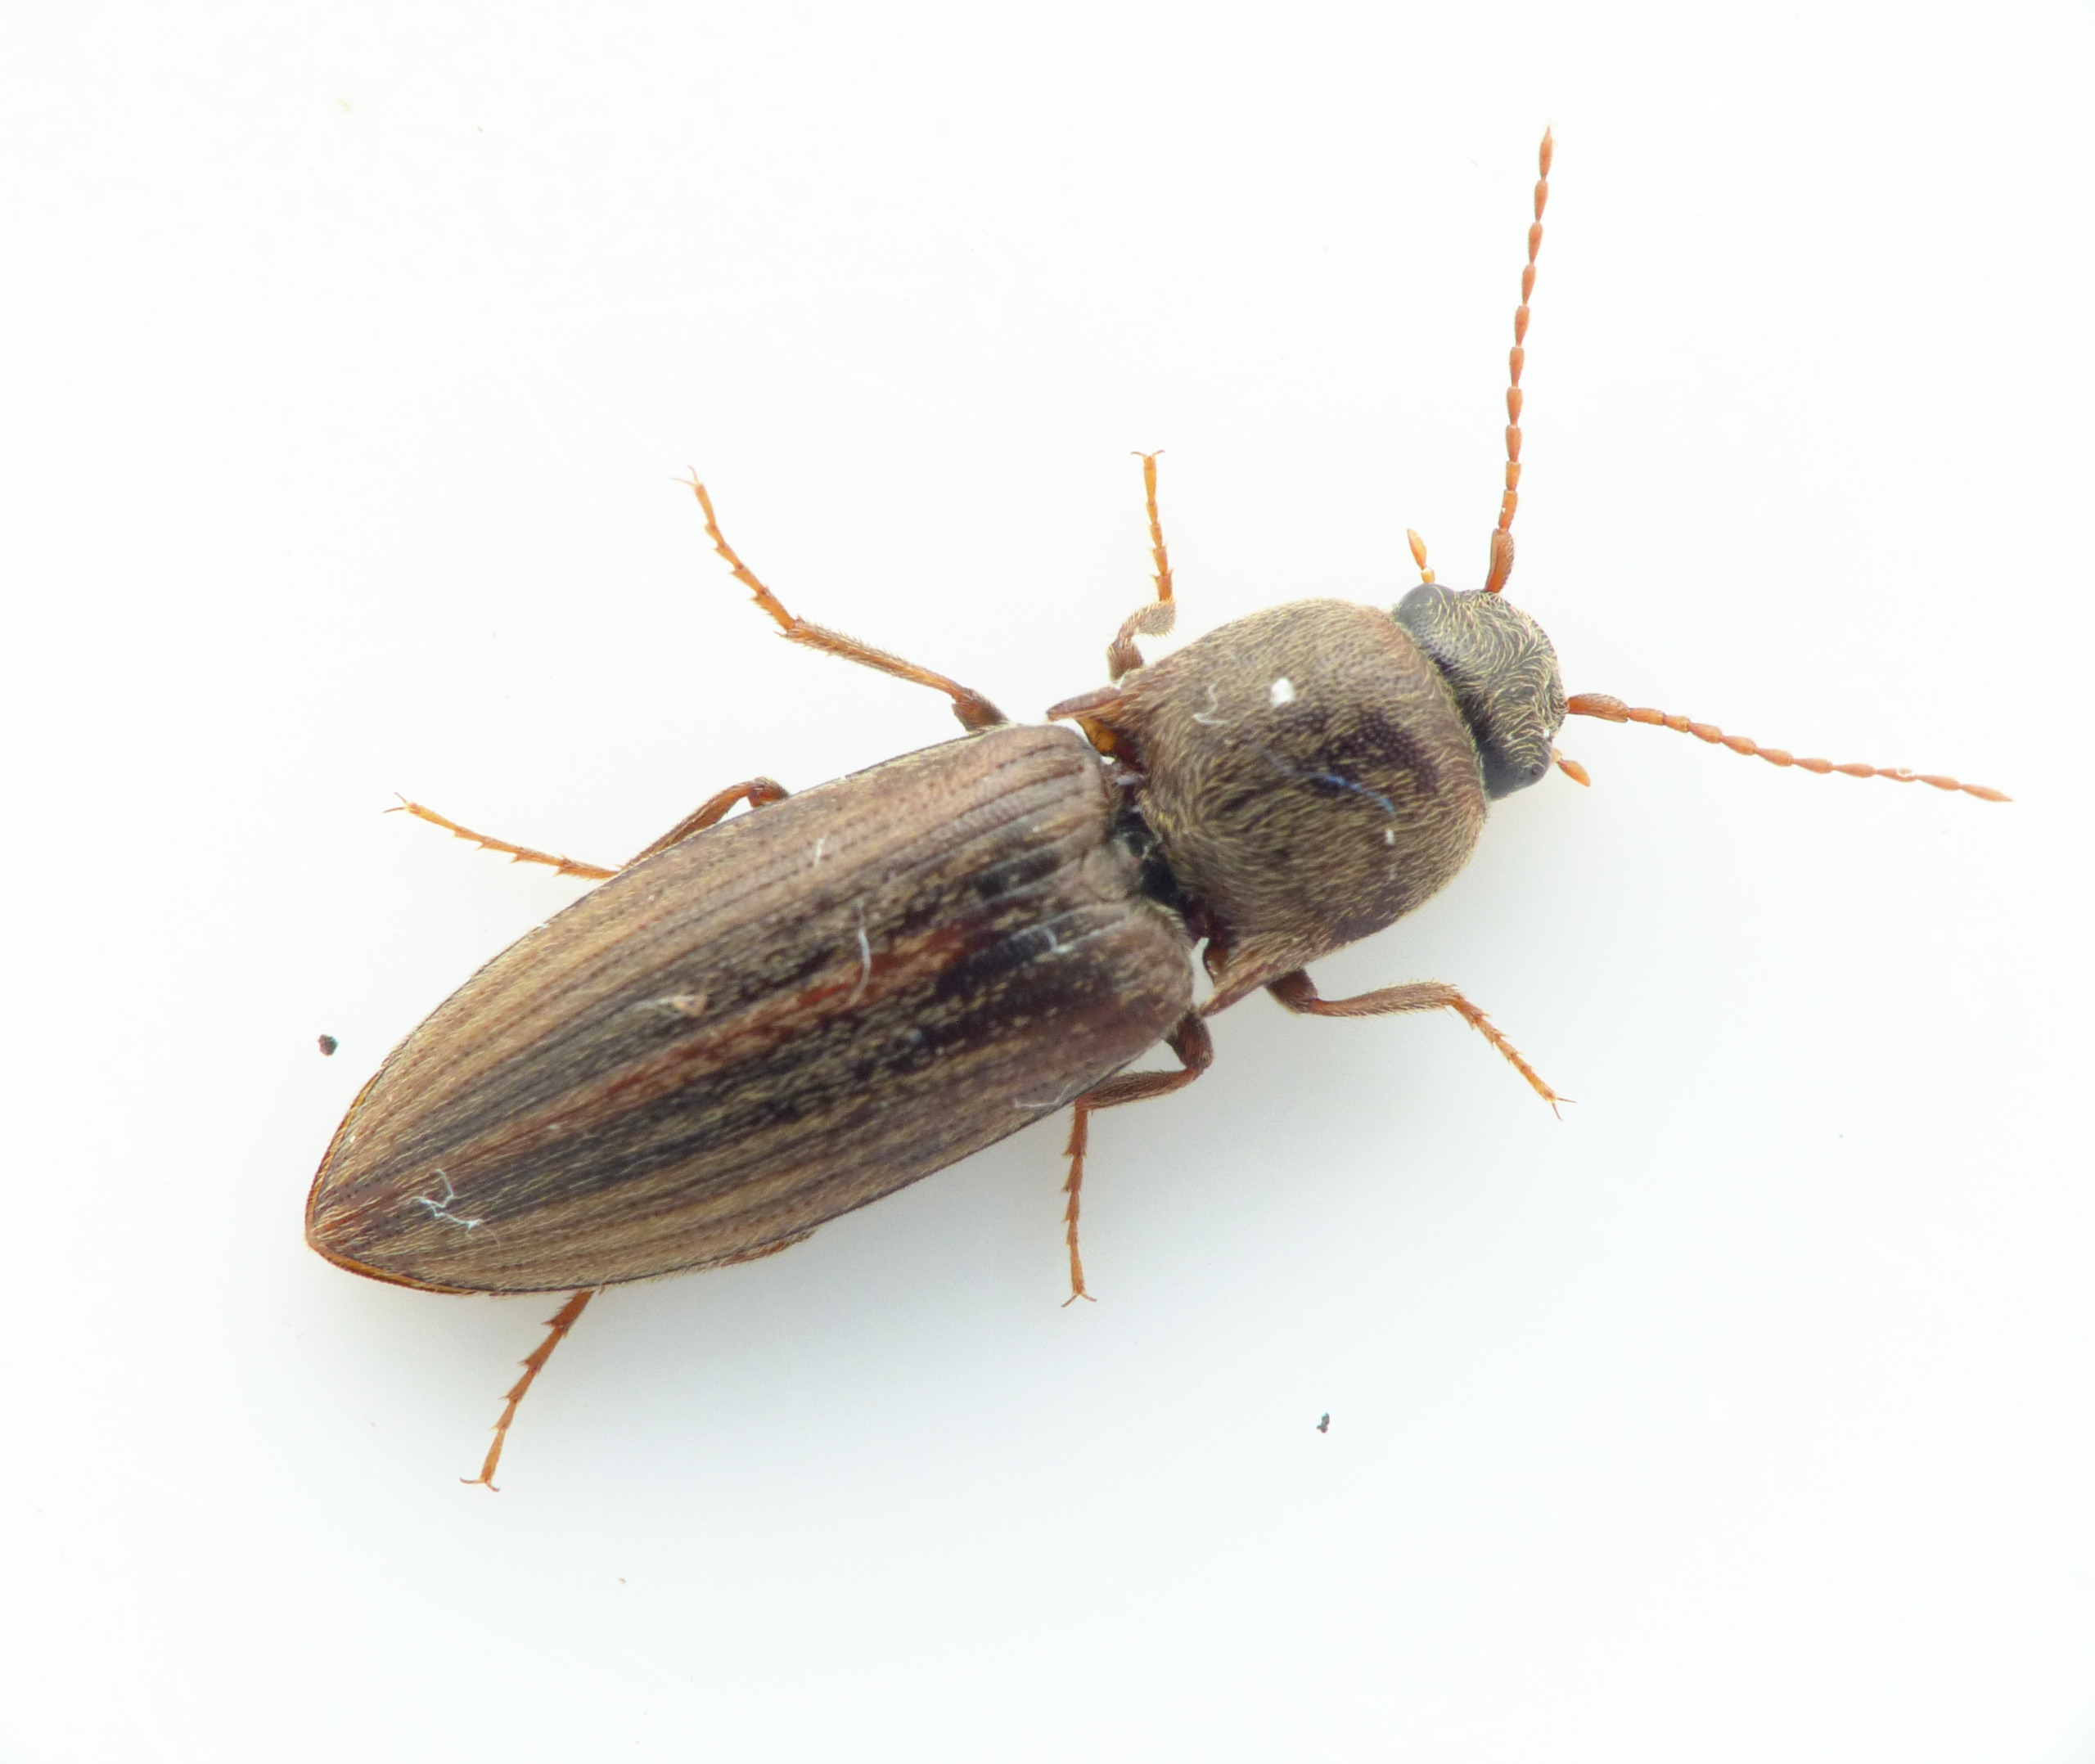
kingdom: Animalia
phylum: Arthropoda
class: Insecta
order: Coleoptera
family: Elateridae
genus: Agriotes
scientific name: Agriotes lineatus
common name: Stribet kornsmælder
